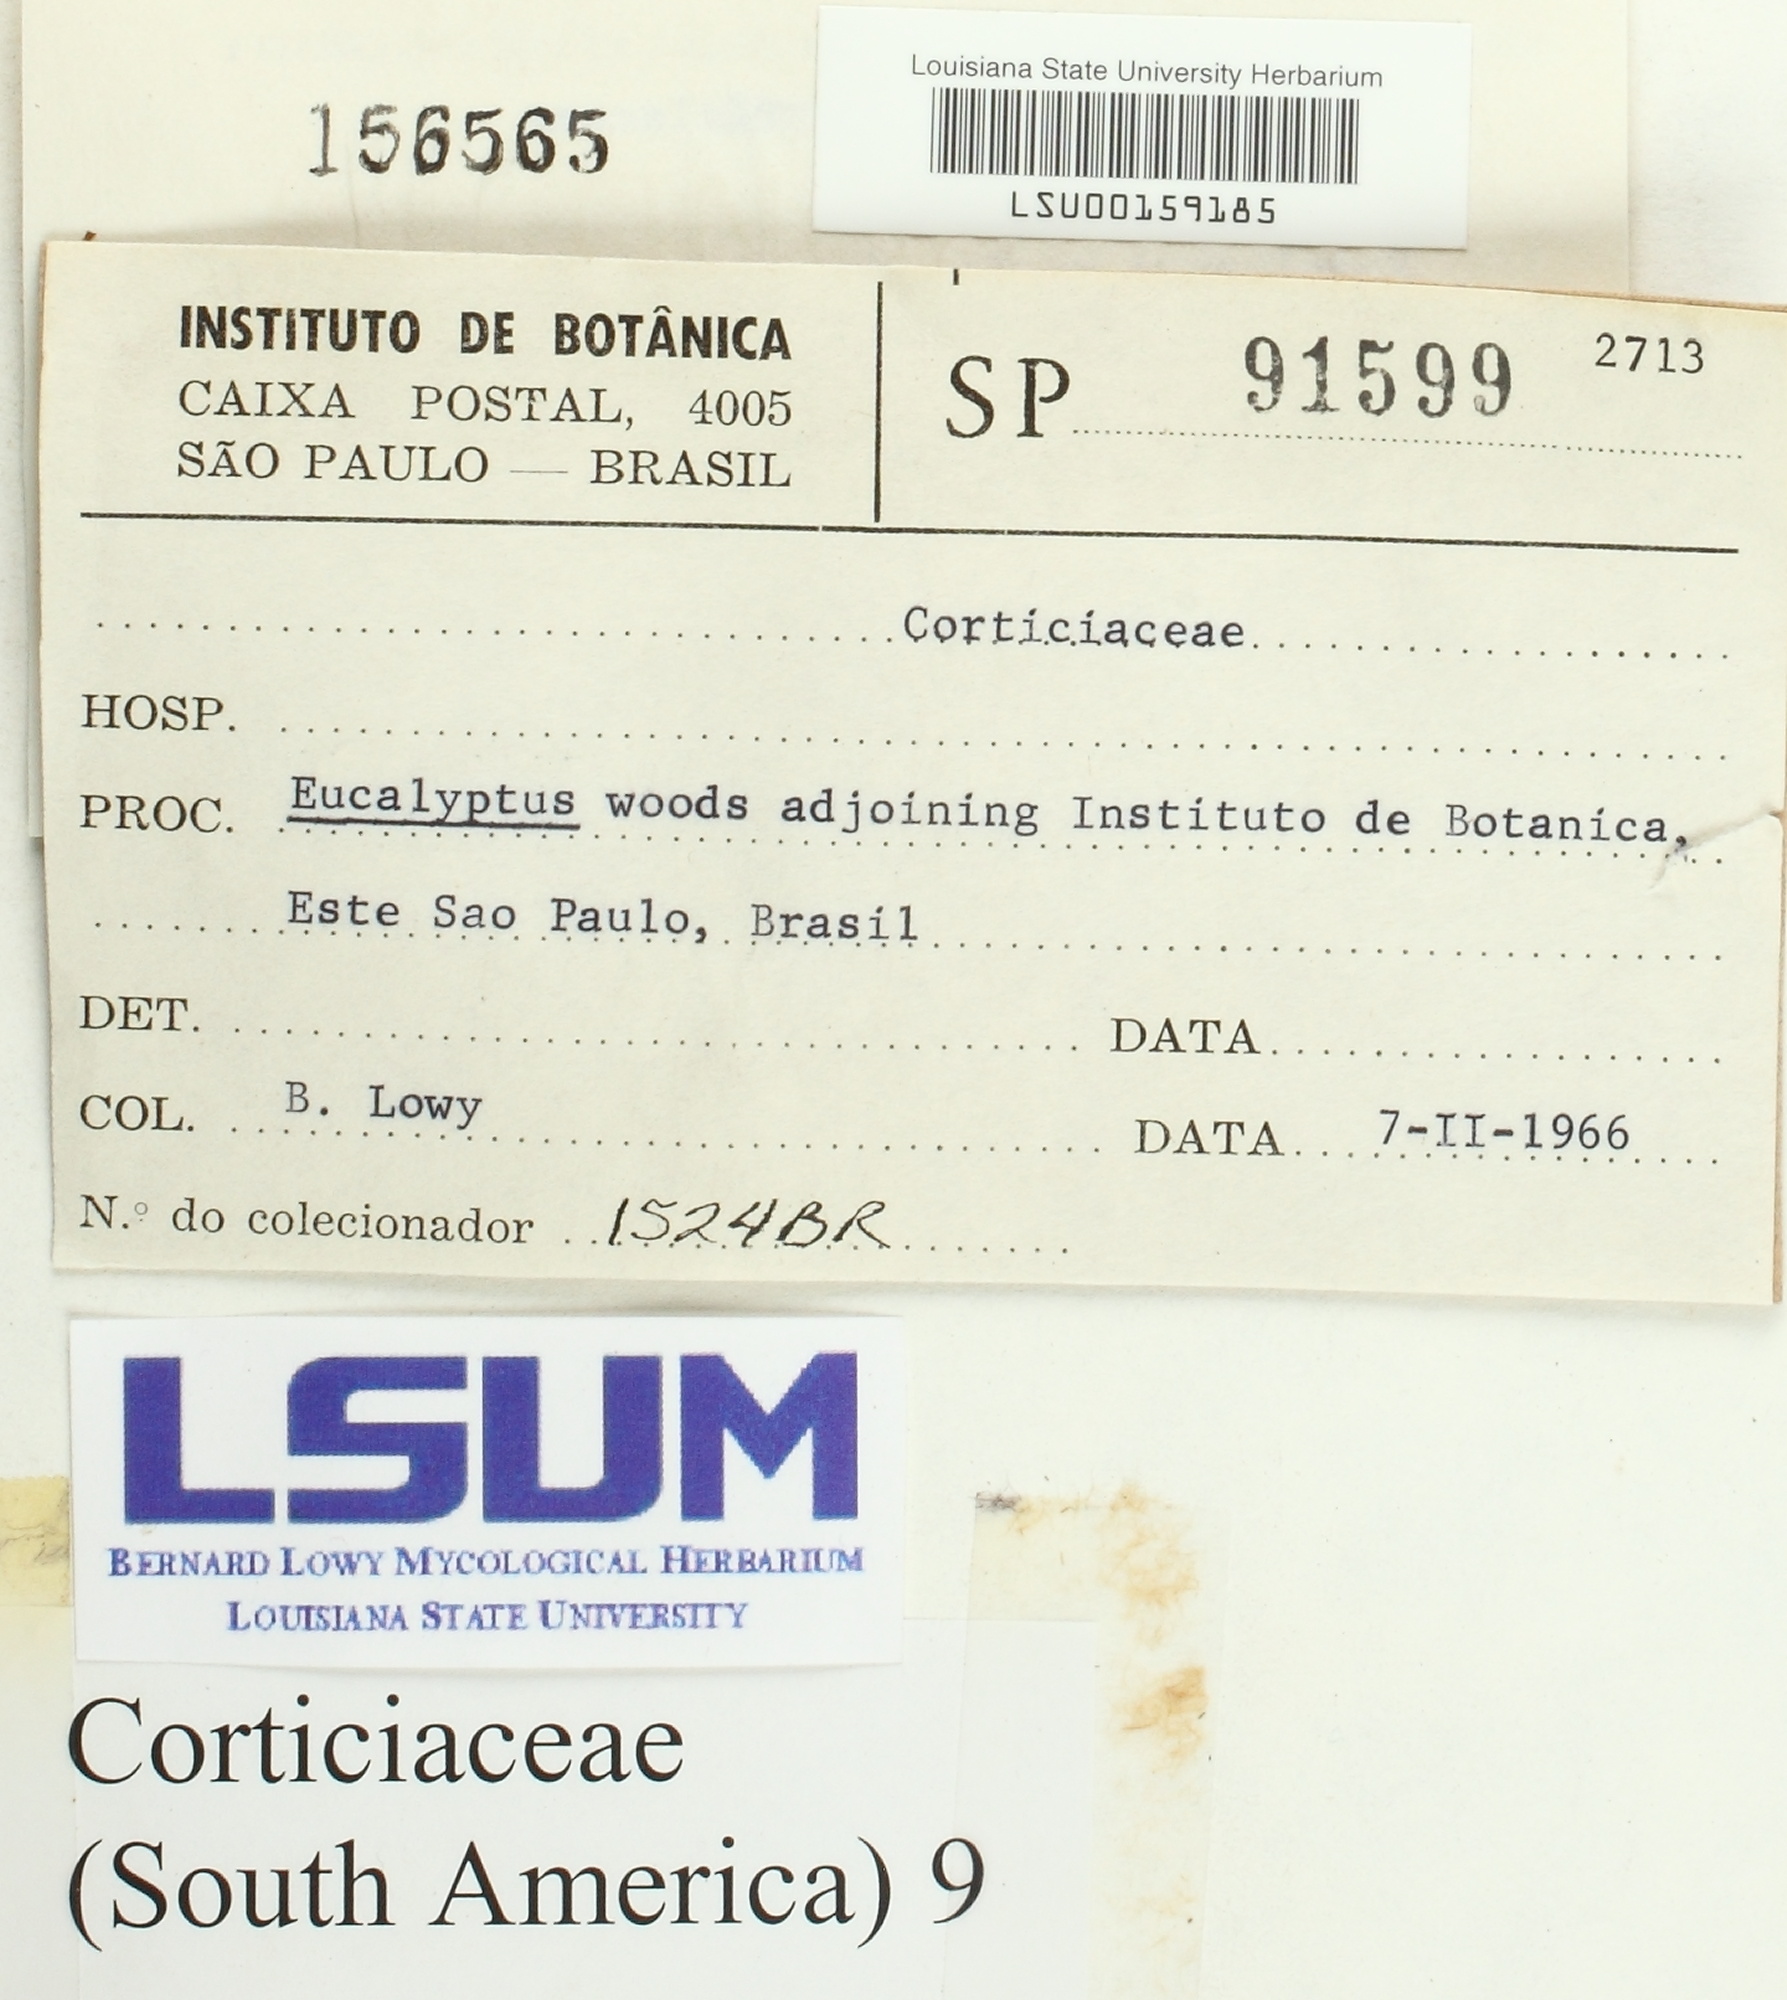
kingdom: Fungi
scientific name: Fungi
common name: Fungi
